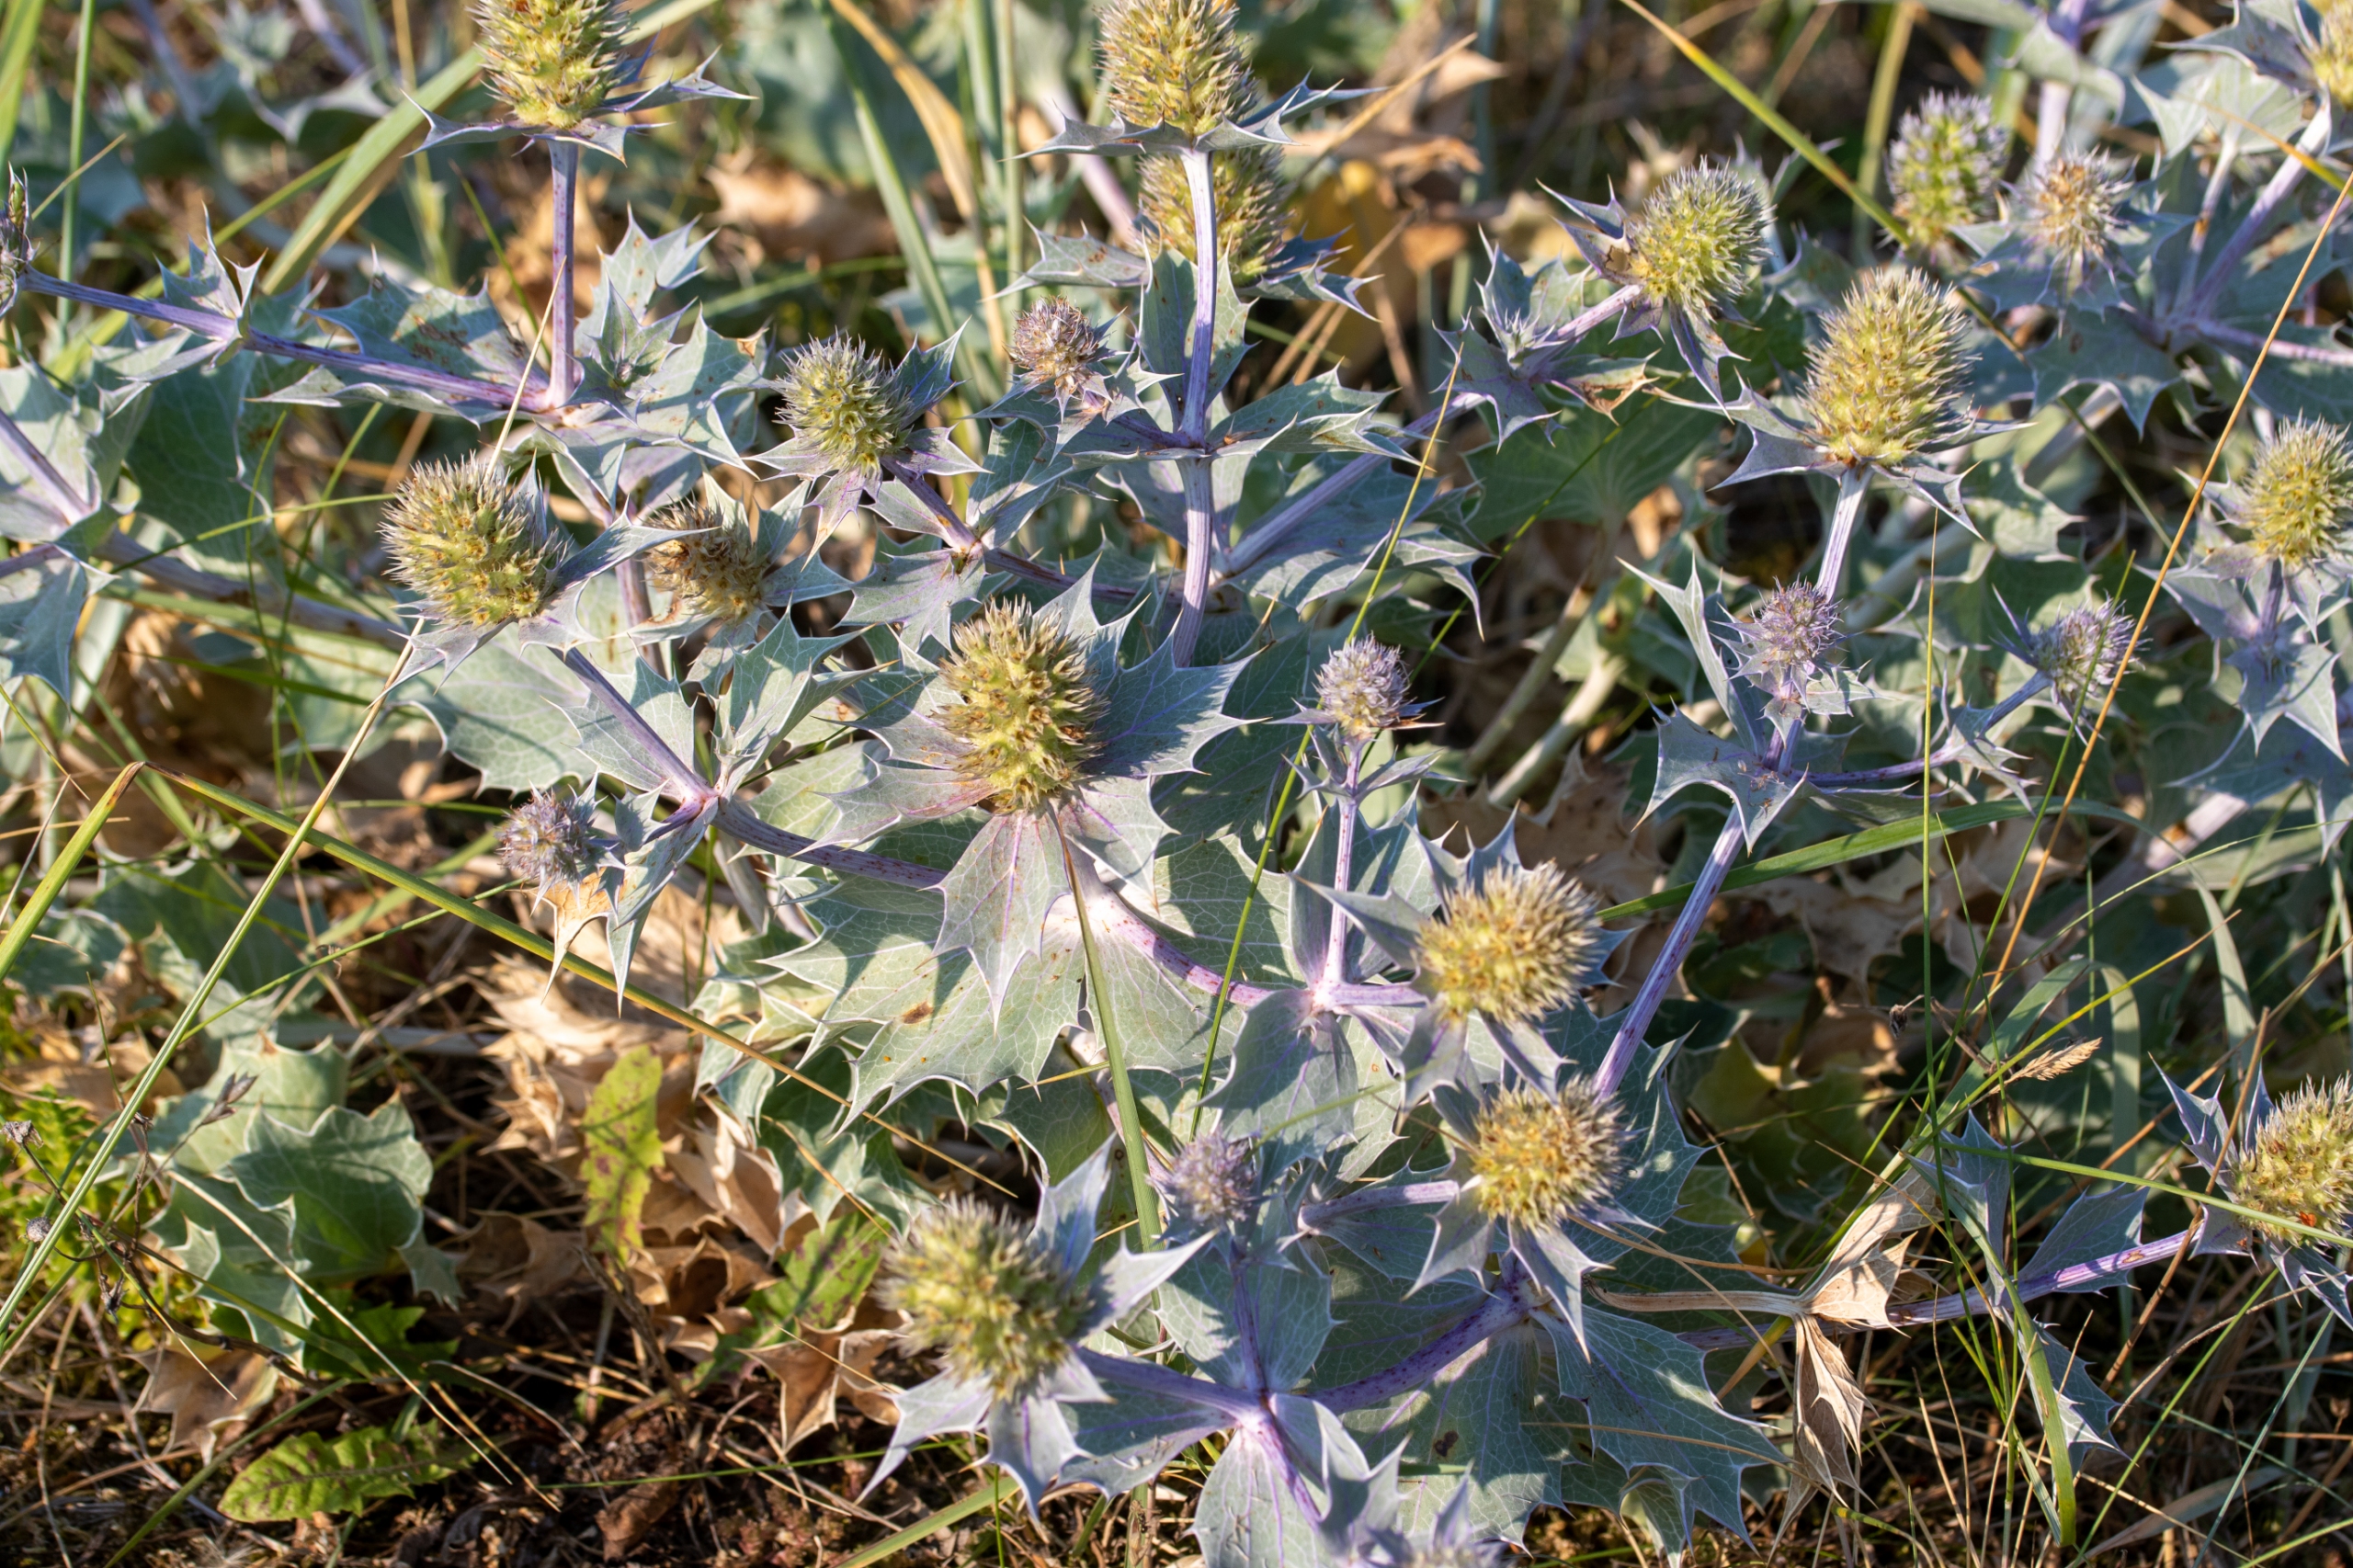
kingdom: Plantae
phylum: Tracheophyta
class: Magnoliopsida
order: Apiales
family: Apiaceae
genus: Eryngium
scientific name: Eryngium maritimum
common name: Strand-mandstro
